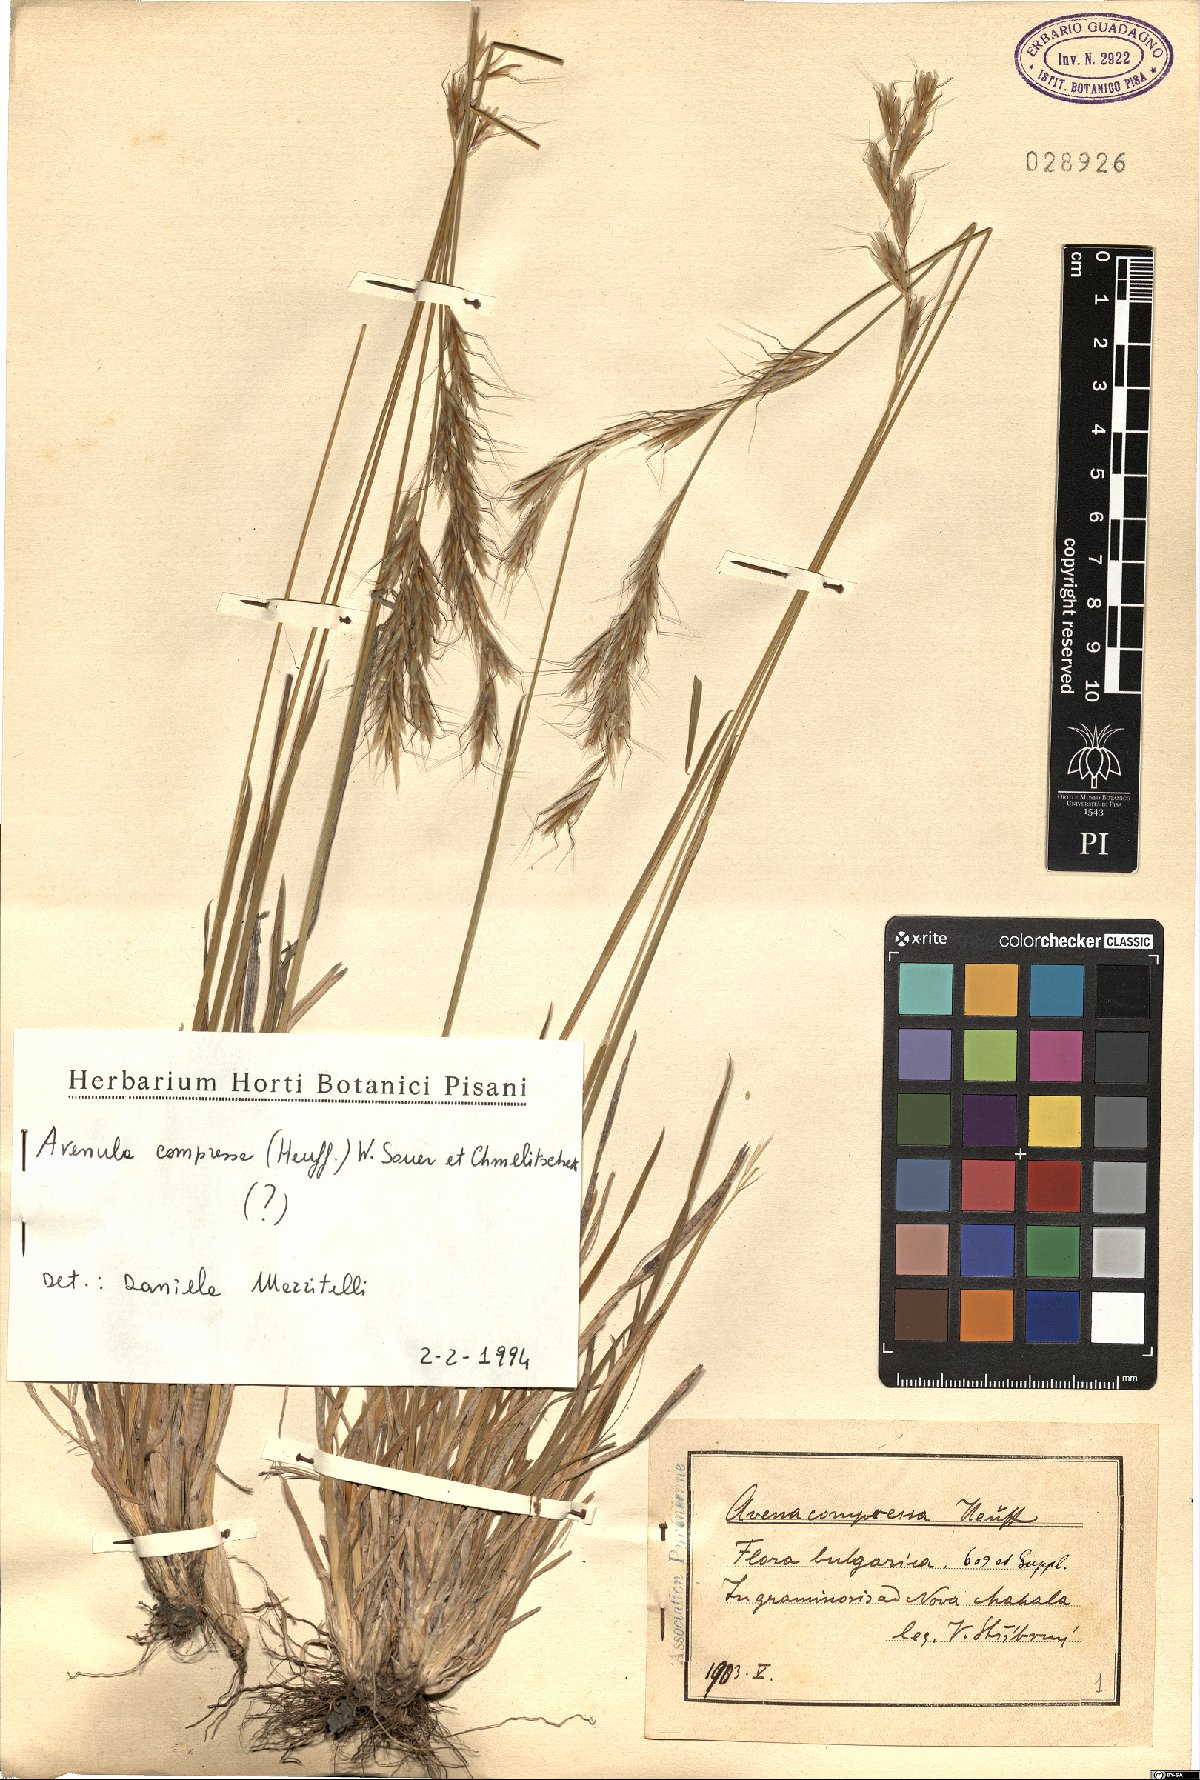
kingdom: Plantae
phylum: Tracheophyta
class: Liliopsida
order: Poales
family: Poaceae
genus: Helictochloa
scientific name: Helictochloa compressa
